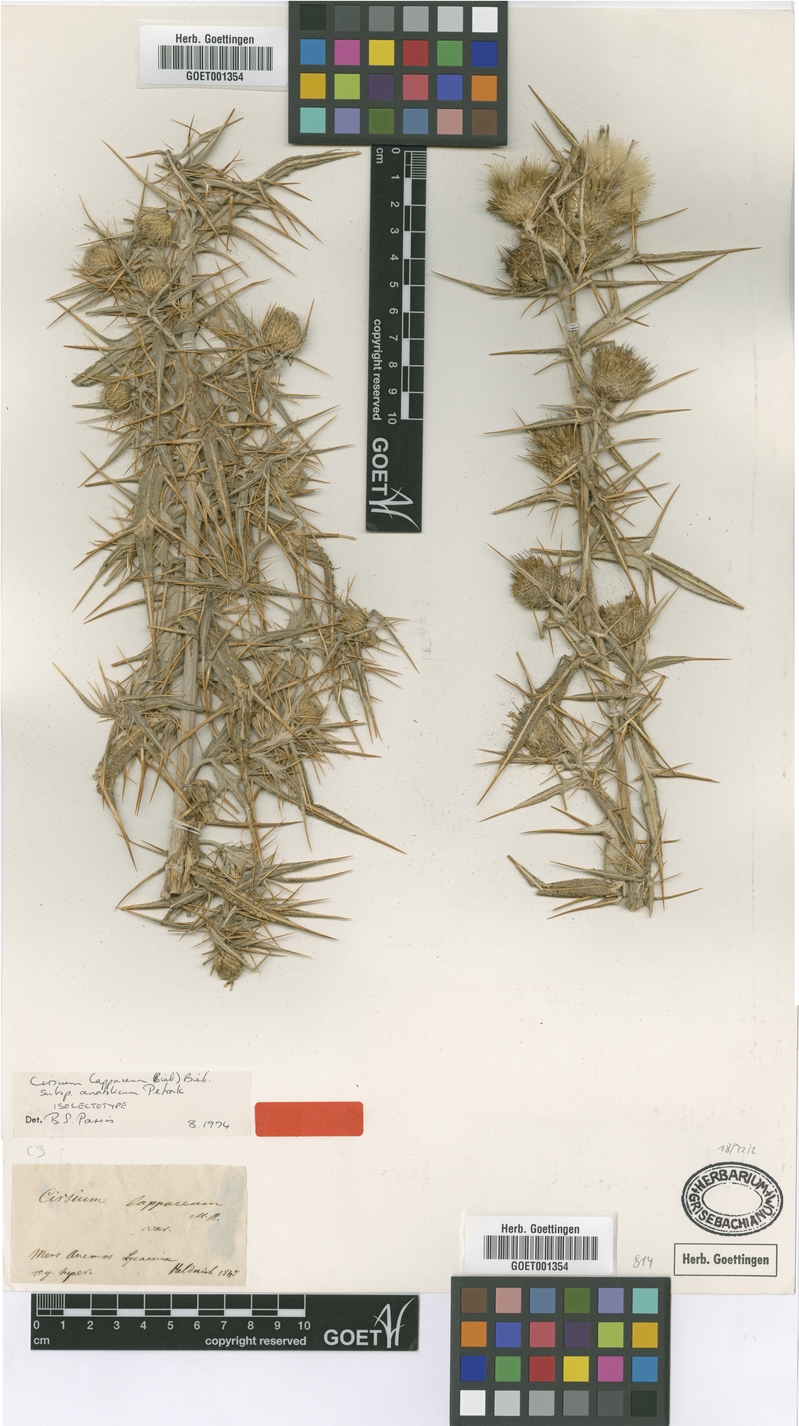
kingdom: Plantae
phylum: Tracheophyta
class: Magnoliopsida
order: Asterales
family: Asteraceae
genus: Lophiolepis
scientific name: Lophiolepis lappacea
